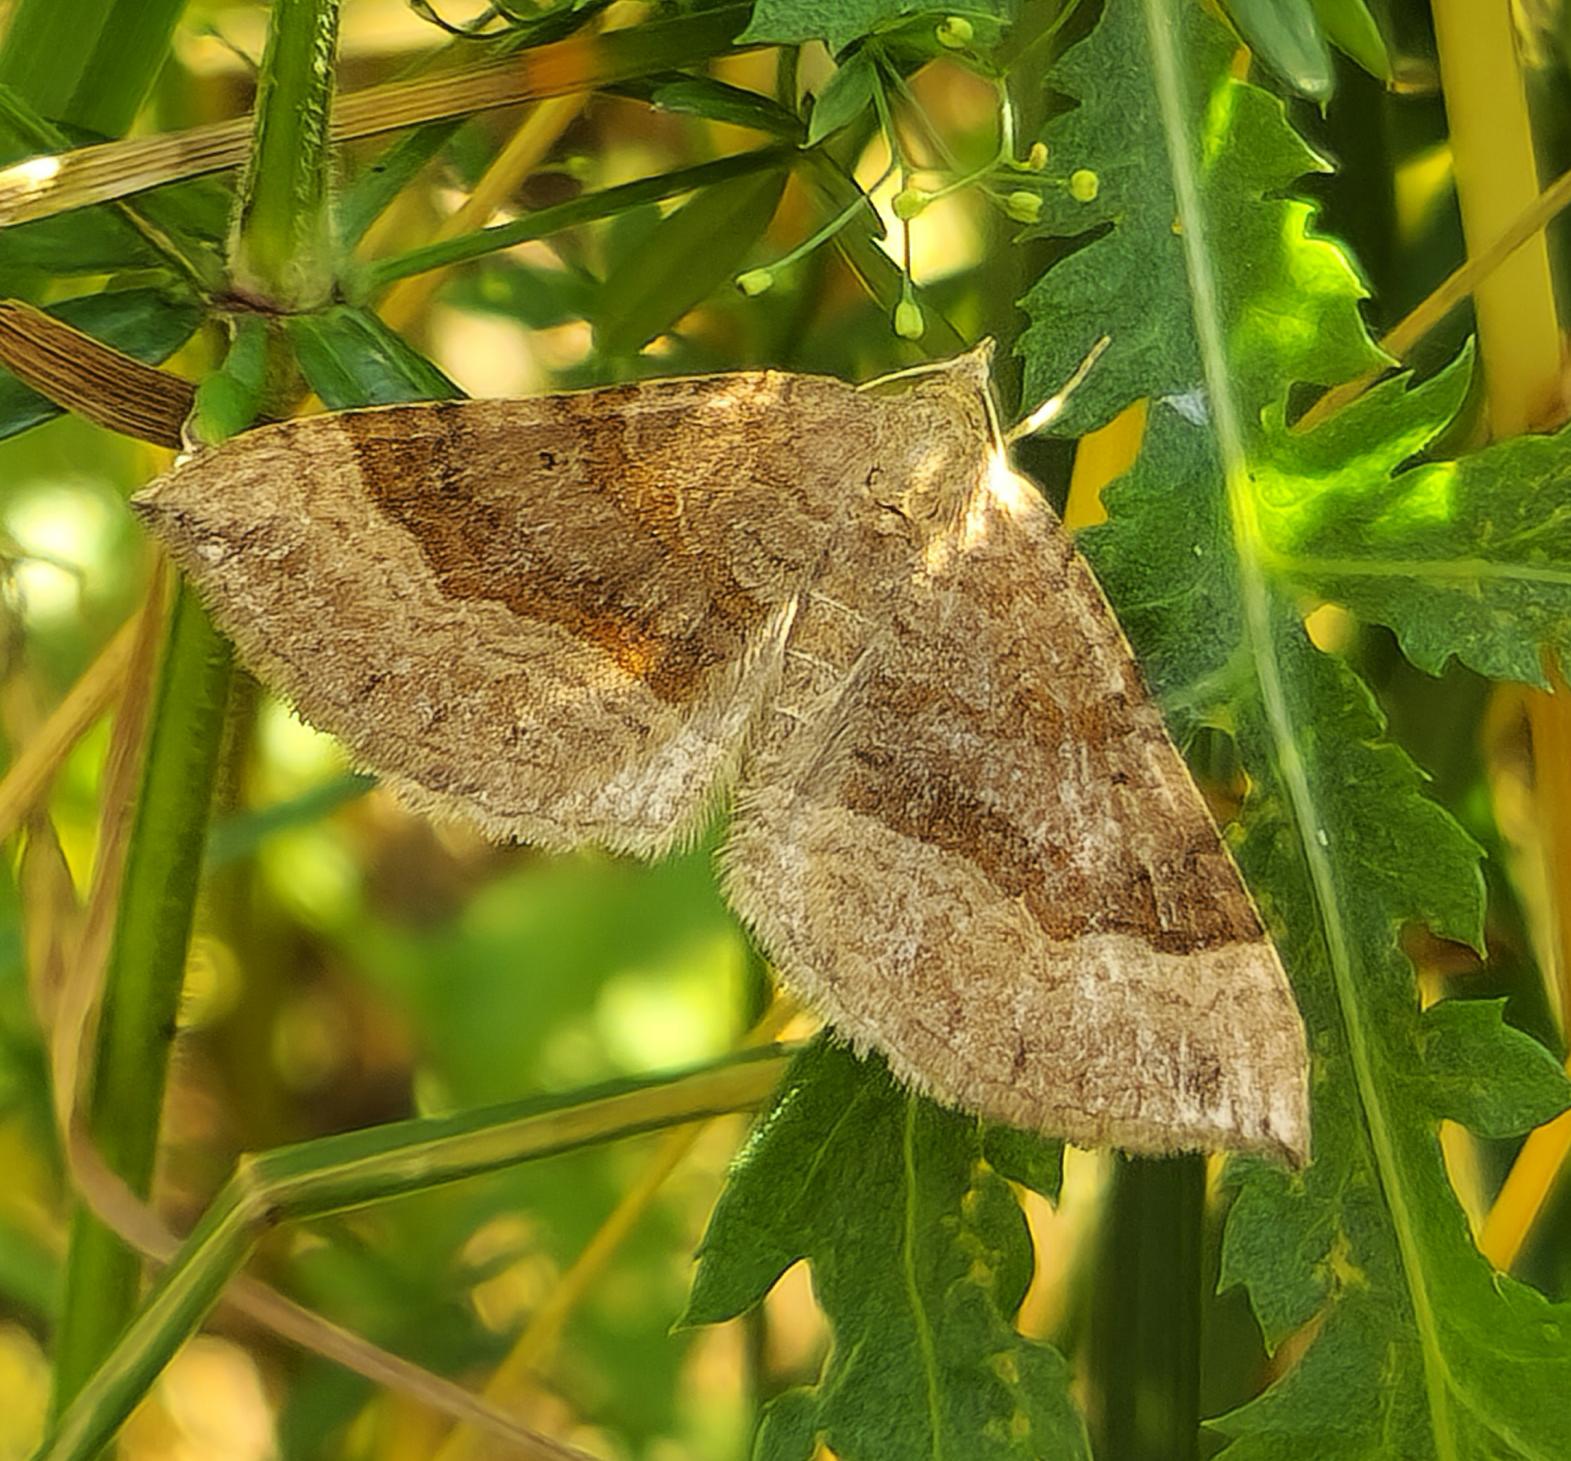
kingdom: Animalia
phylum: Arthropoda
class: Insecta
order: Lepidoptera
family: Geometridae
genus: Scotopteryx
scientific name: Scotopteryx chenopodiata
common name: Almindelig spidsvingemåler
